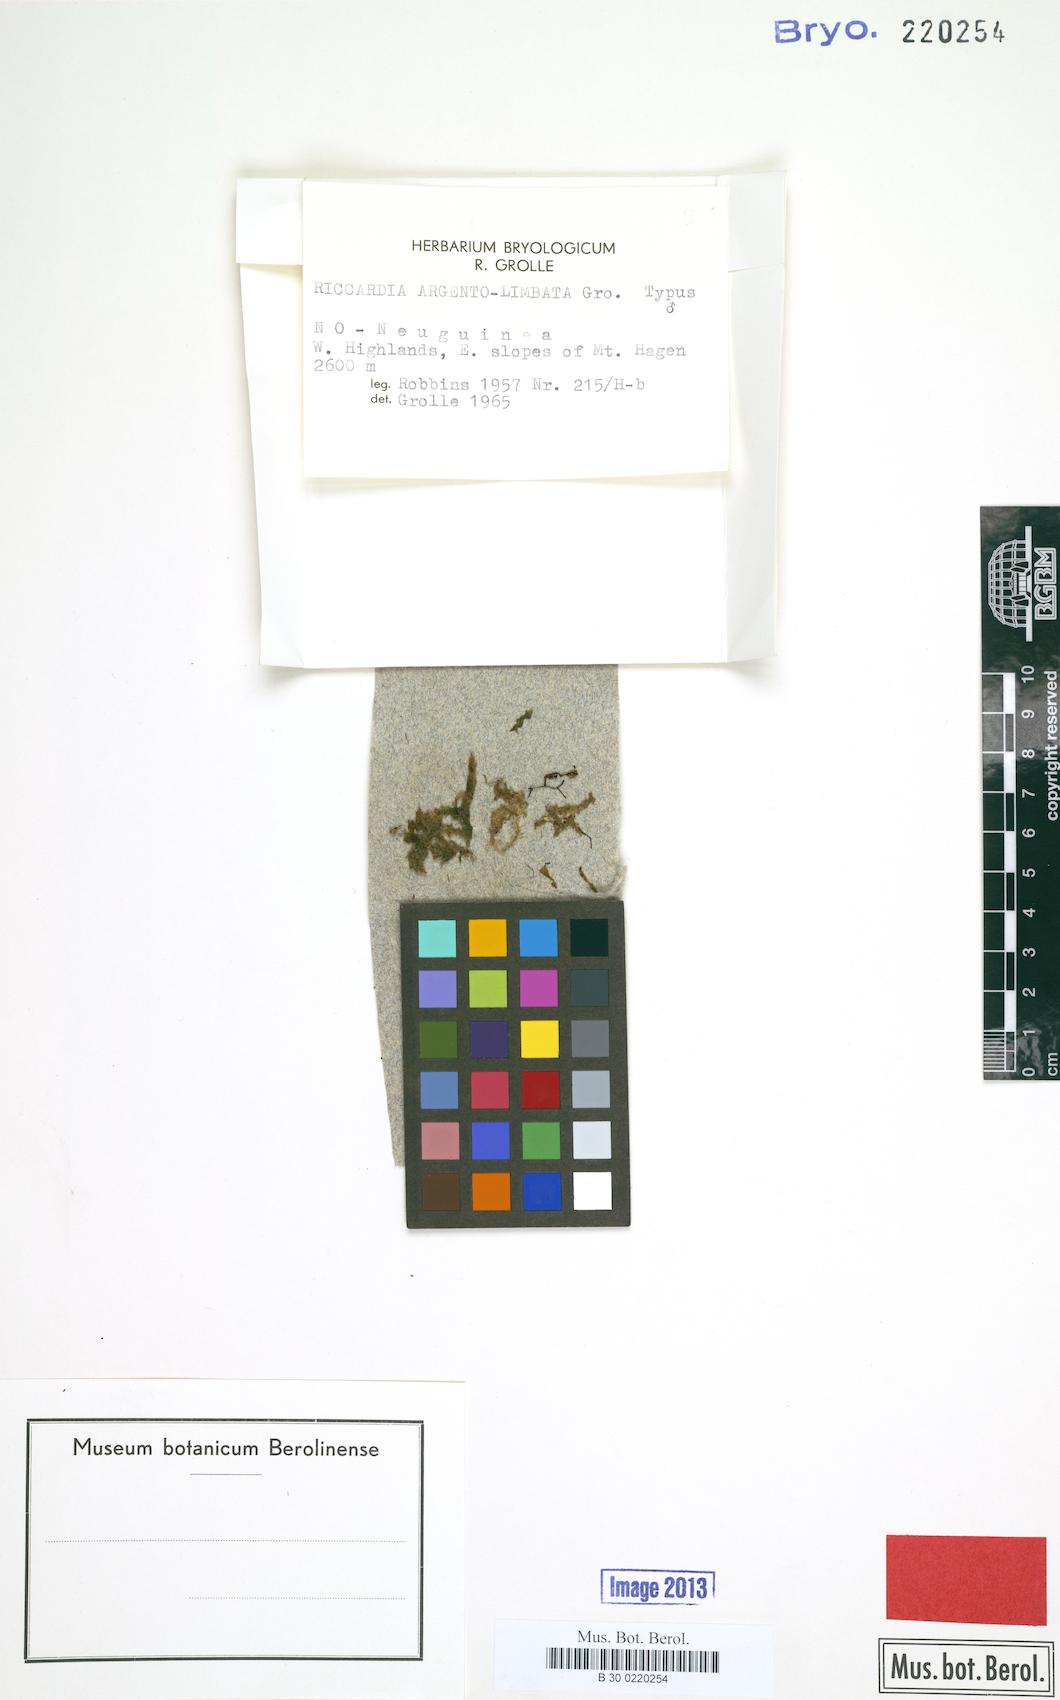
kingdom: Plantae
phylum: Marchantiophyta
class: Jungermanniopsida
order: Metzgeriales
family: Aneuraceae
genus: Riccardia
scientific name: Riccardia argentolimbata
